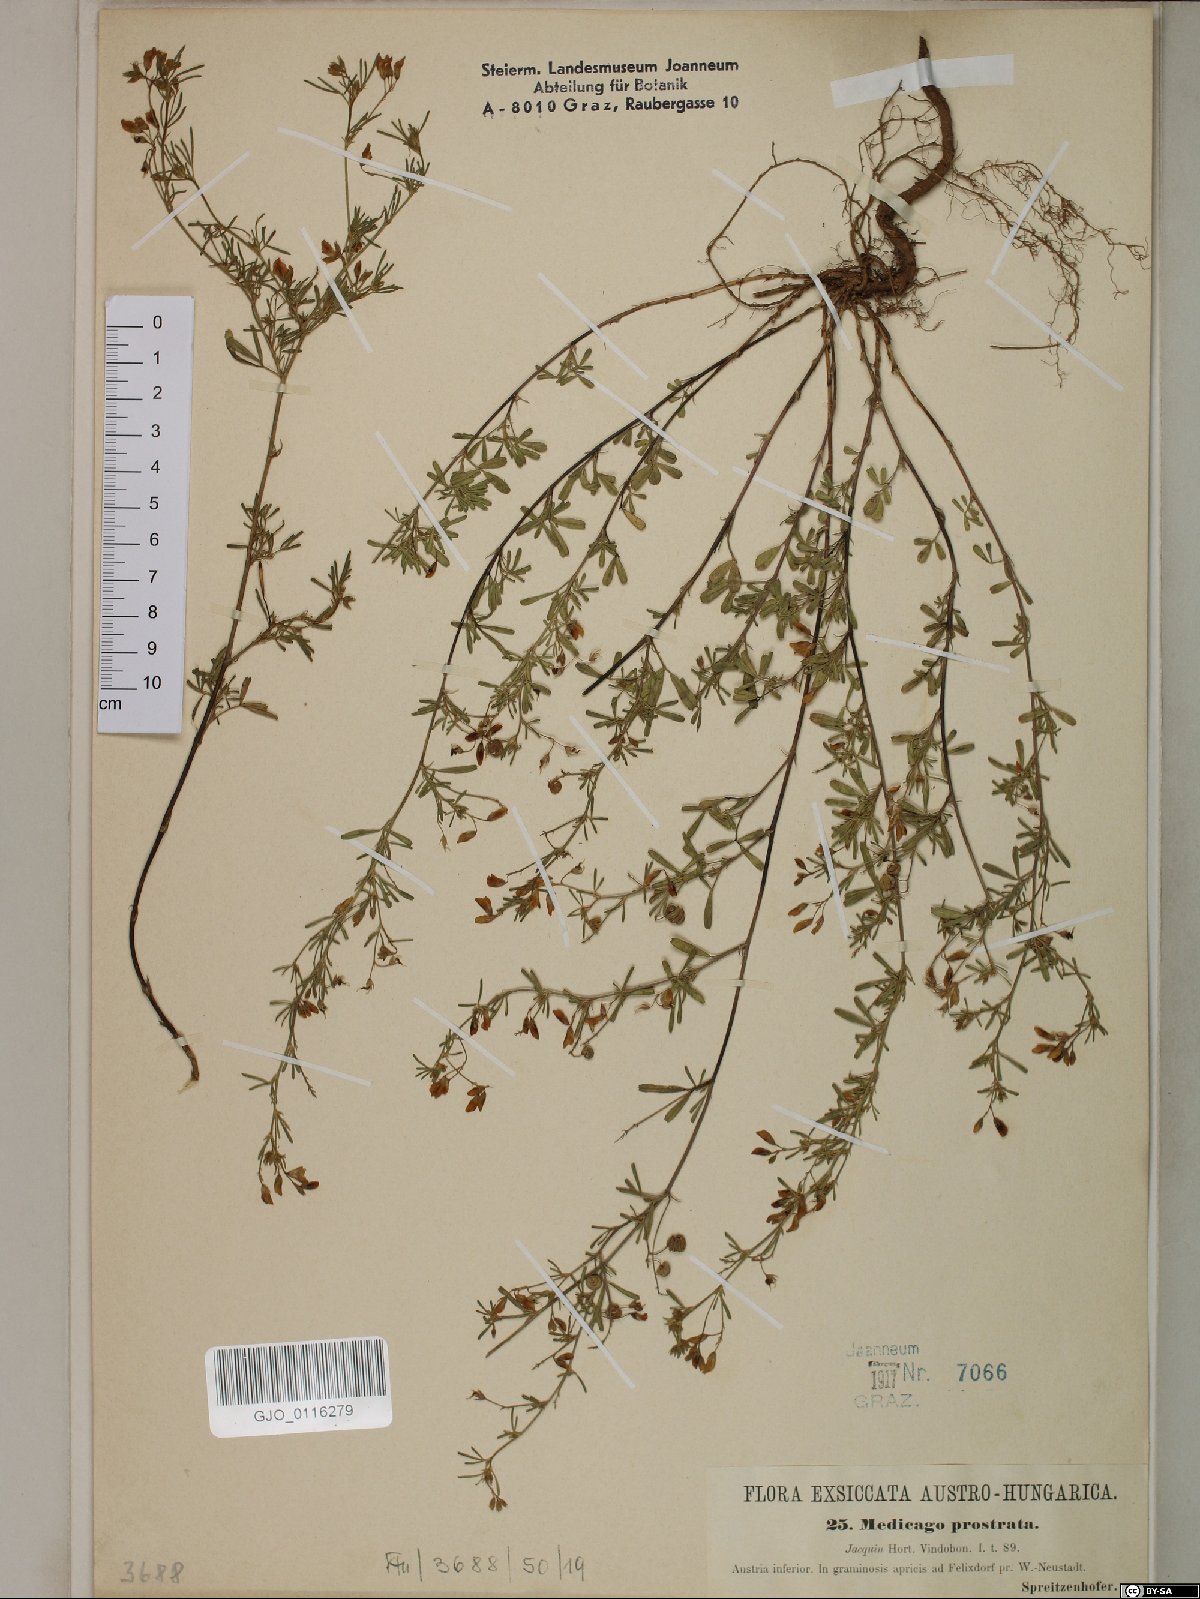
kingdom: Plantae
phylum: Tracheophyta
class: Magnoliopsida
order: Fabales
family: Fabaceae
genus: Medicago
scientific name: Medicago prostrata
